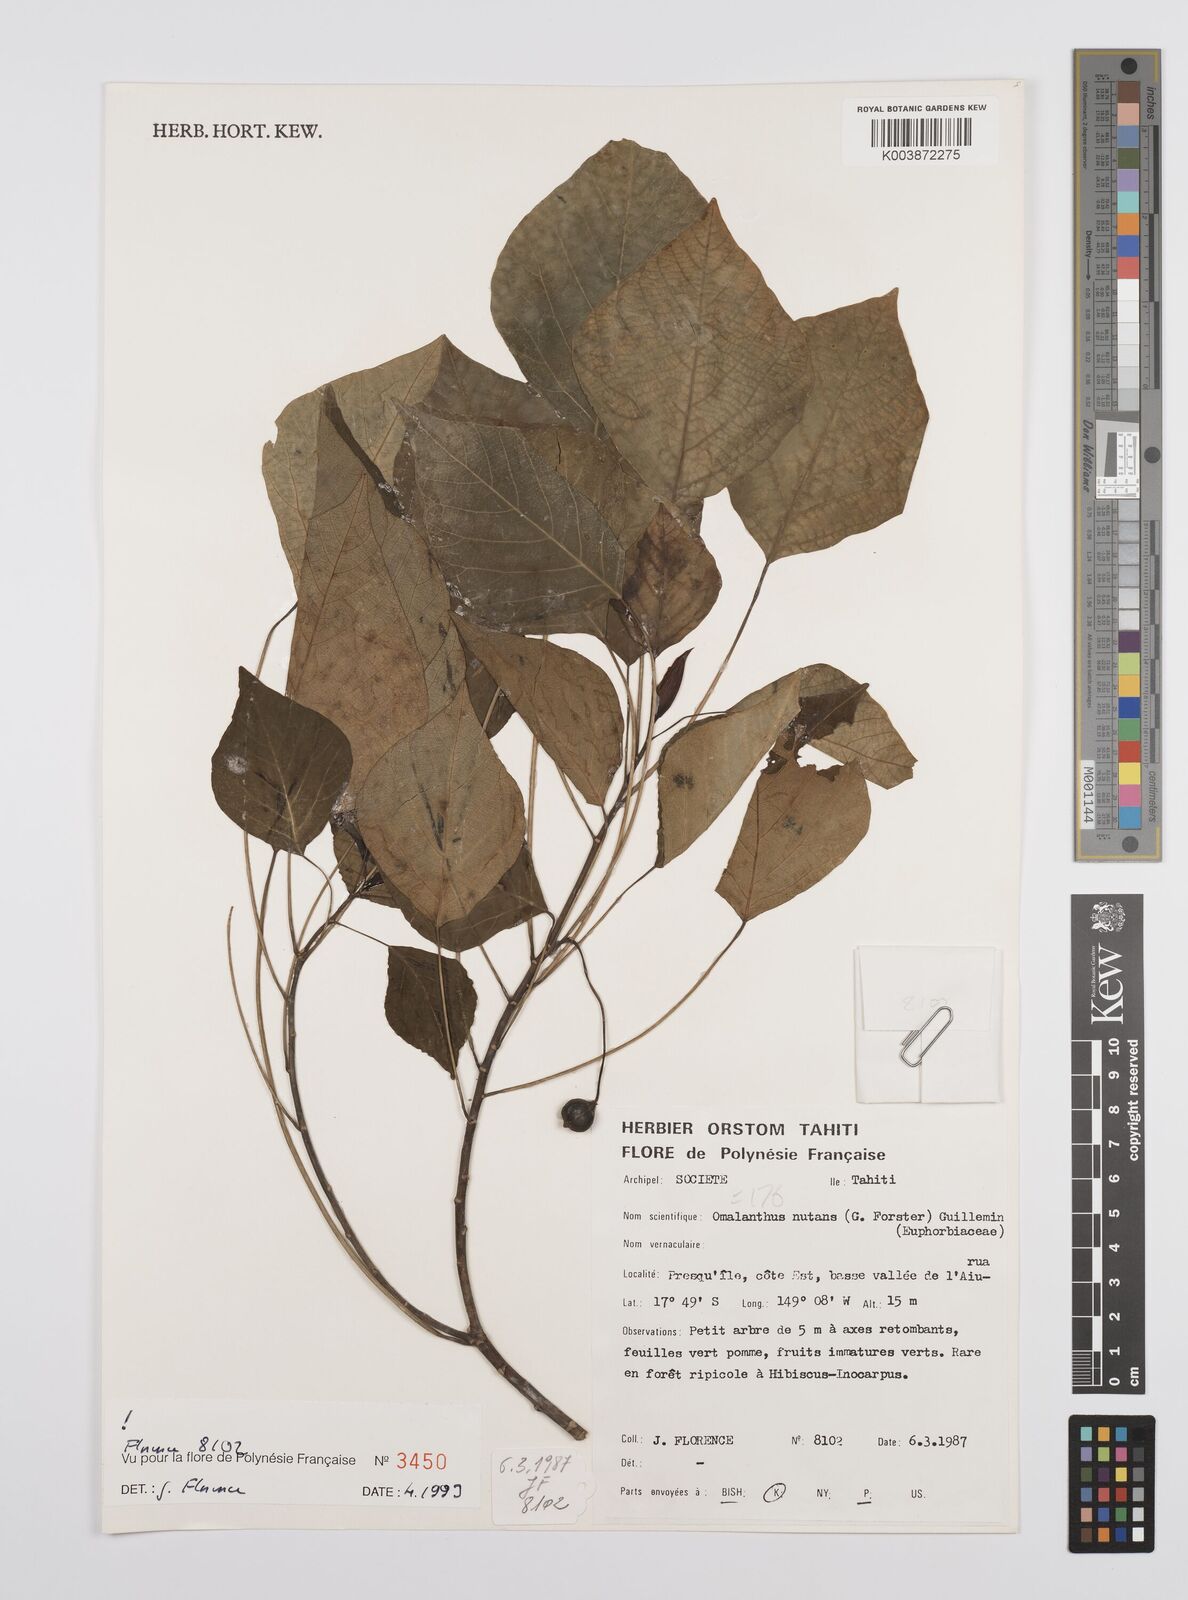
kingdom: Plantae
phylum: Tracheophyta
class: Magnoliopsida
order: Malpighiales
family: Euphorbiaceae
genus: Homalanthus
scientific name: Homalanthus nutans
